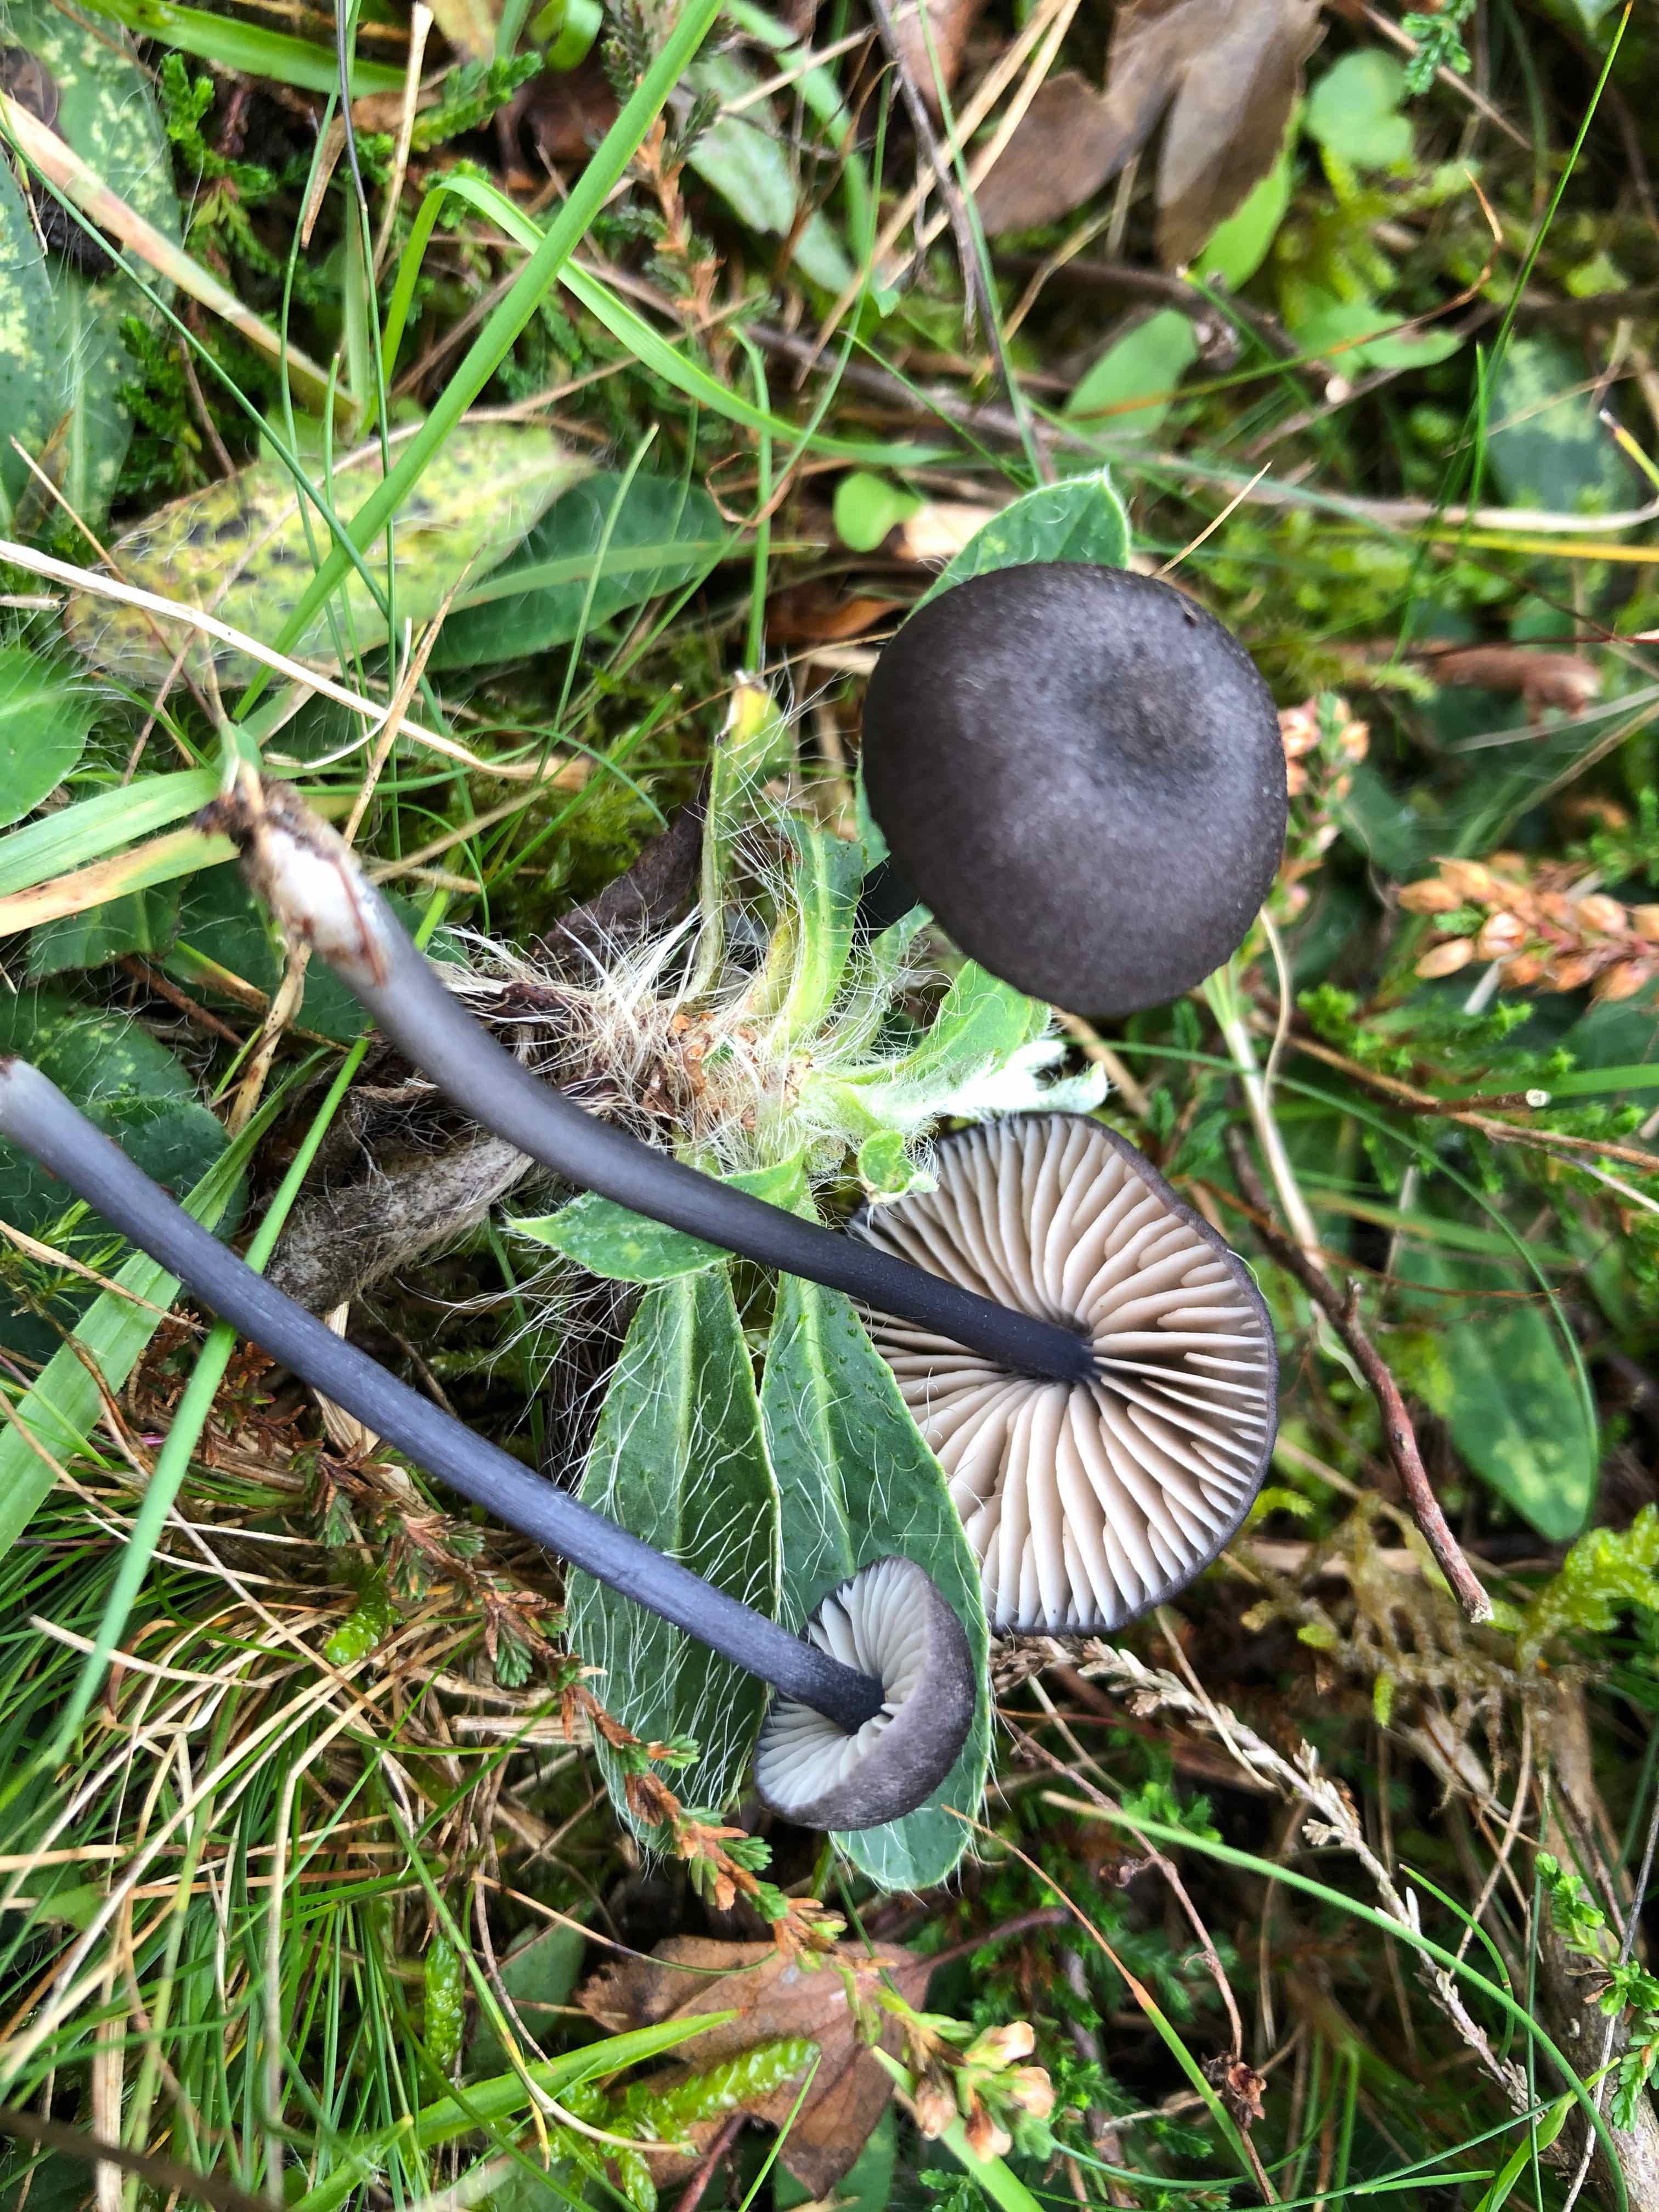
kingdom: Fungi
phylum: Basidiomycota
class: Agaricomycetes
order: Agaricales
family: Entolomataceae
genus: Entoloma
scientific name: Entoloma
